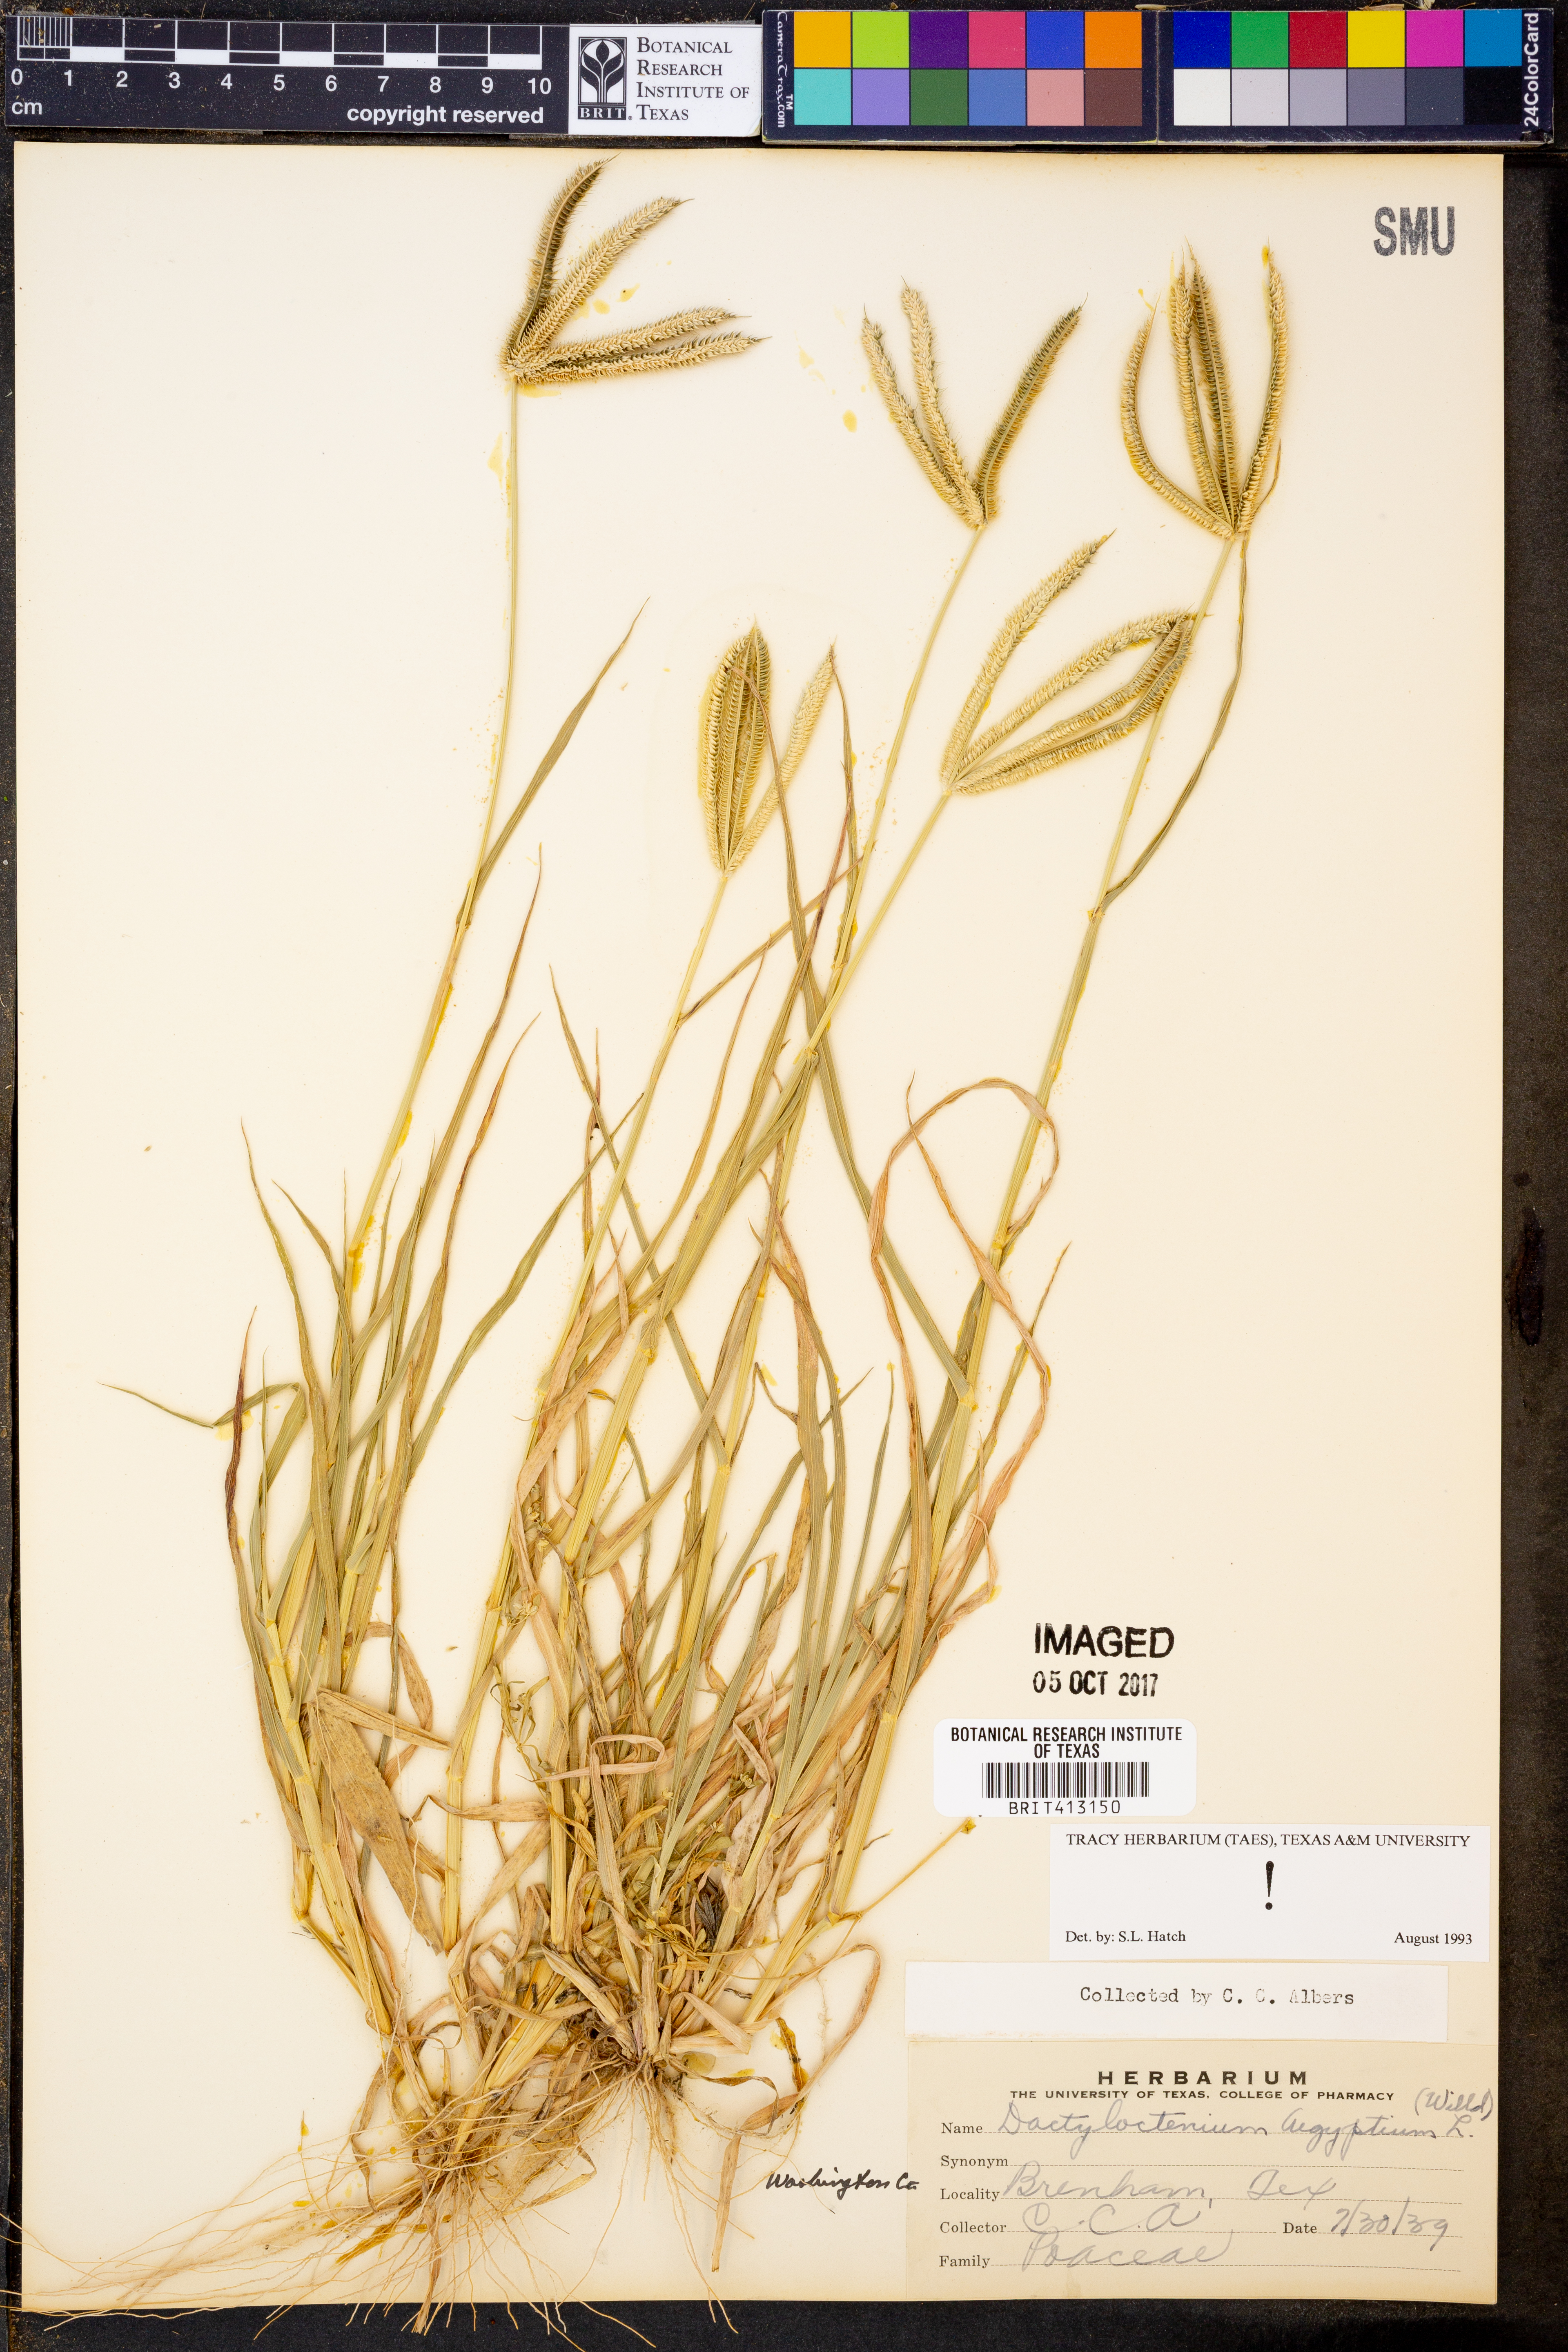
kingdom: Plantae
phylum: Tracheophyta
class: Liliopsida
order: Poales
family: Poaceae
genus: Dactyloctenium
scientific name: Dactyloctenium aegyptium
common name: Egyptian grass
